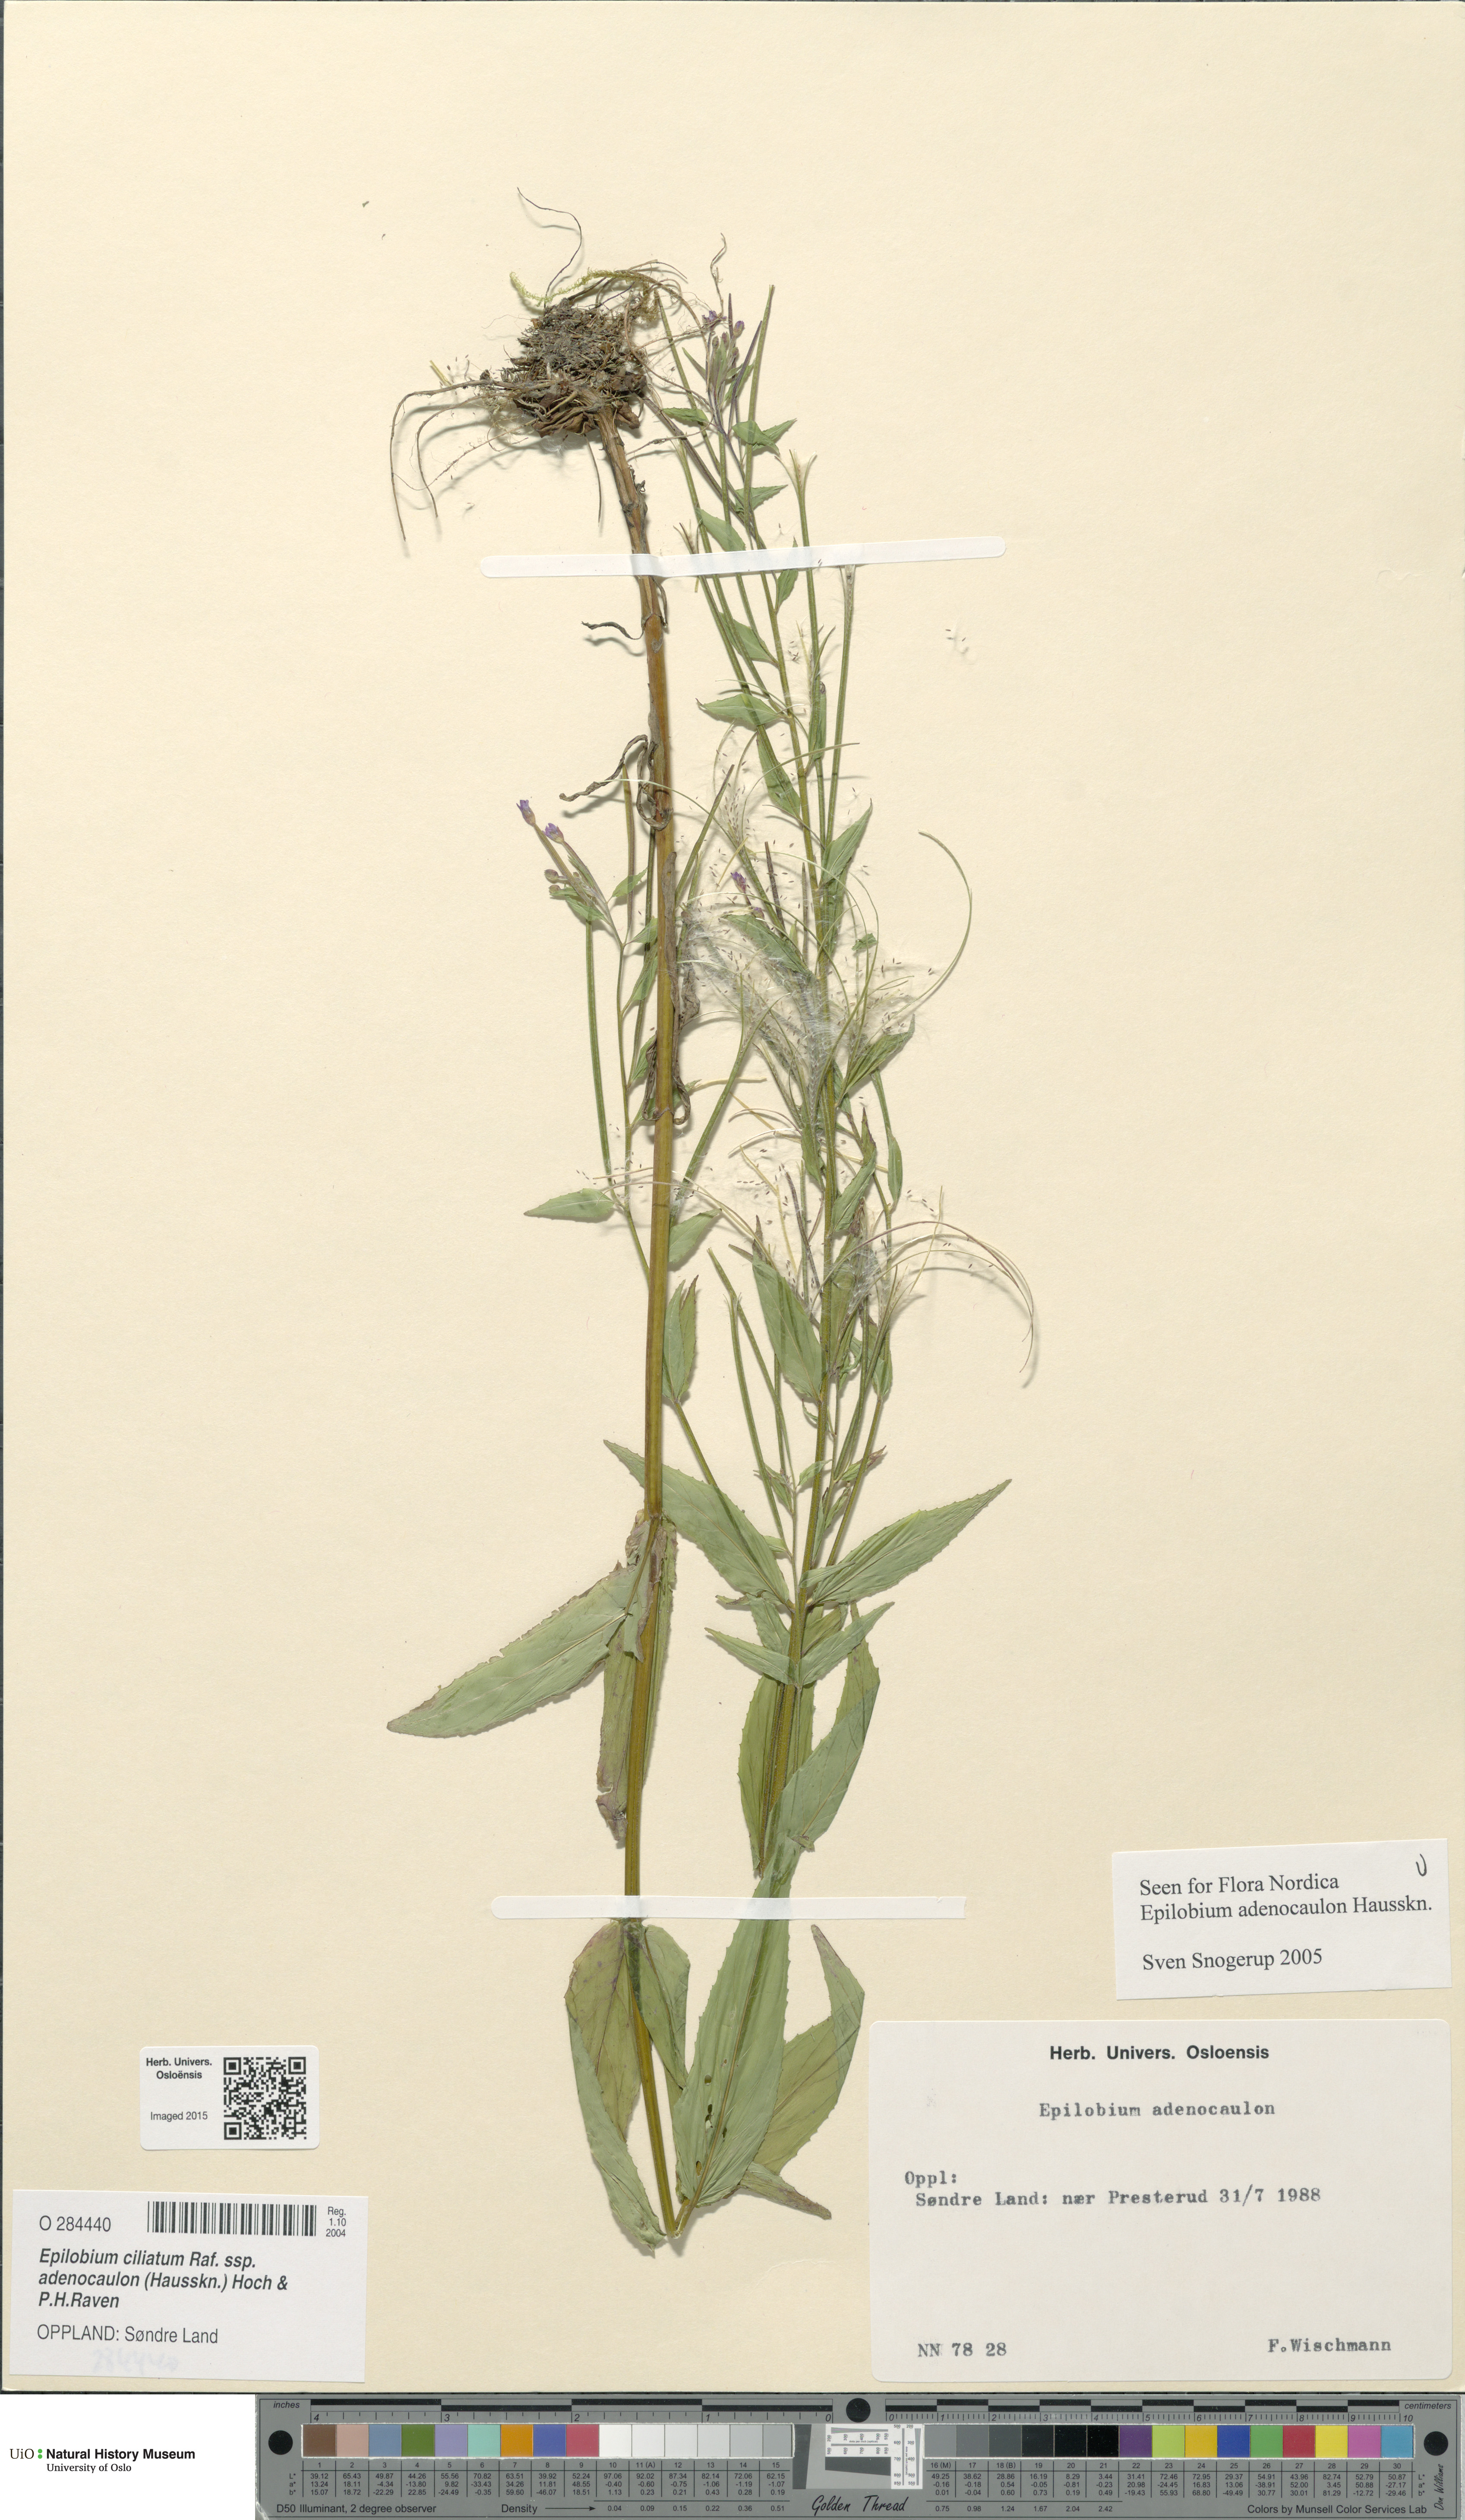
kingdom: Plantae
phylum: Tracheophyta
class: Magnoliopsida
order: Myrtales
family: Onagraceae
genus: Epilobium
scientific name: Epilobium ciliatum
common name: American willowherb
